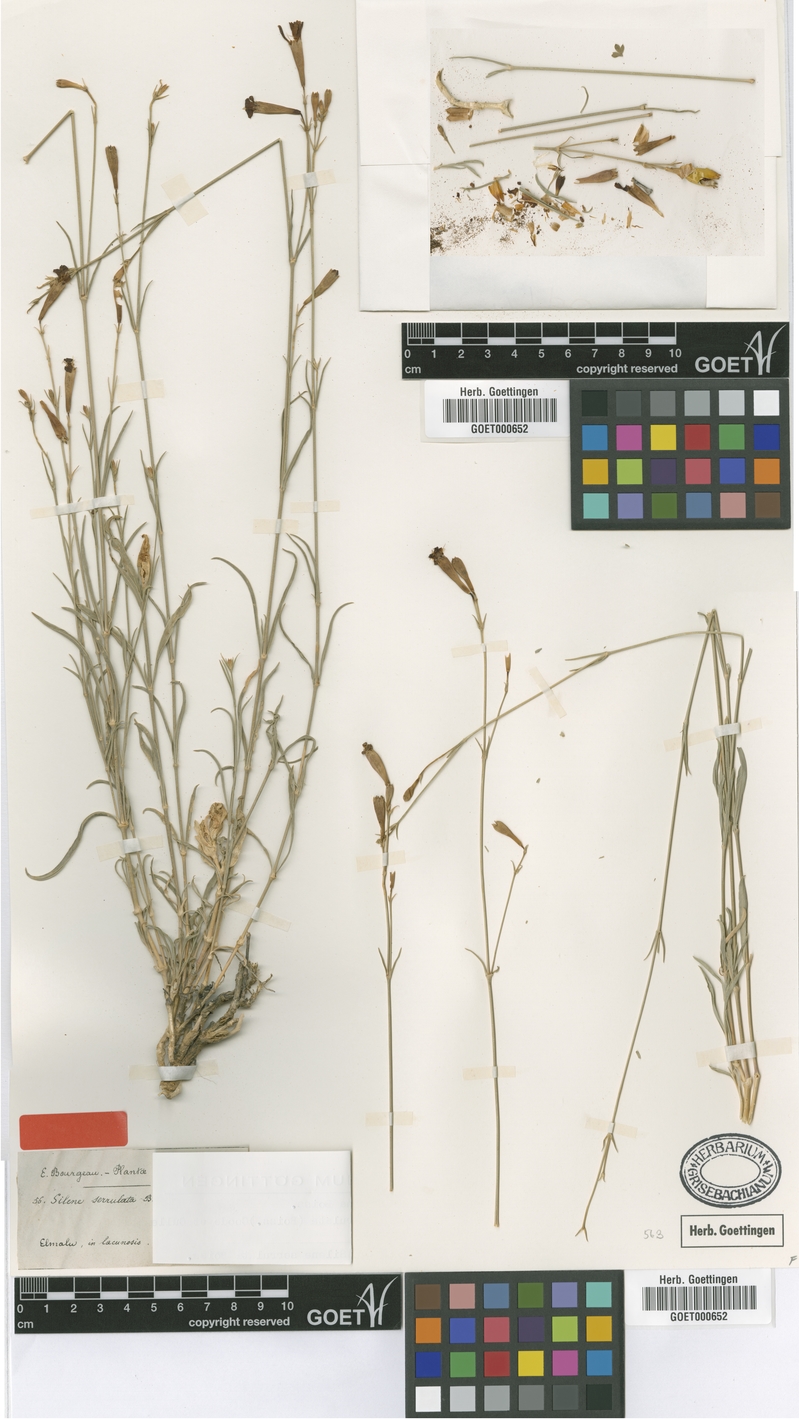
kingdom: Plantae
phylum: Tracheophyta
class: Magnoliopsida
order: Caryophyllales
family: Caryophyllaceae
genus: Silene
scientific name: Silene armena
